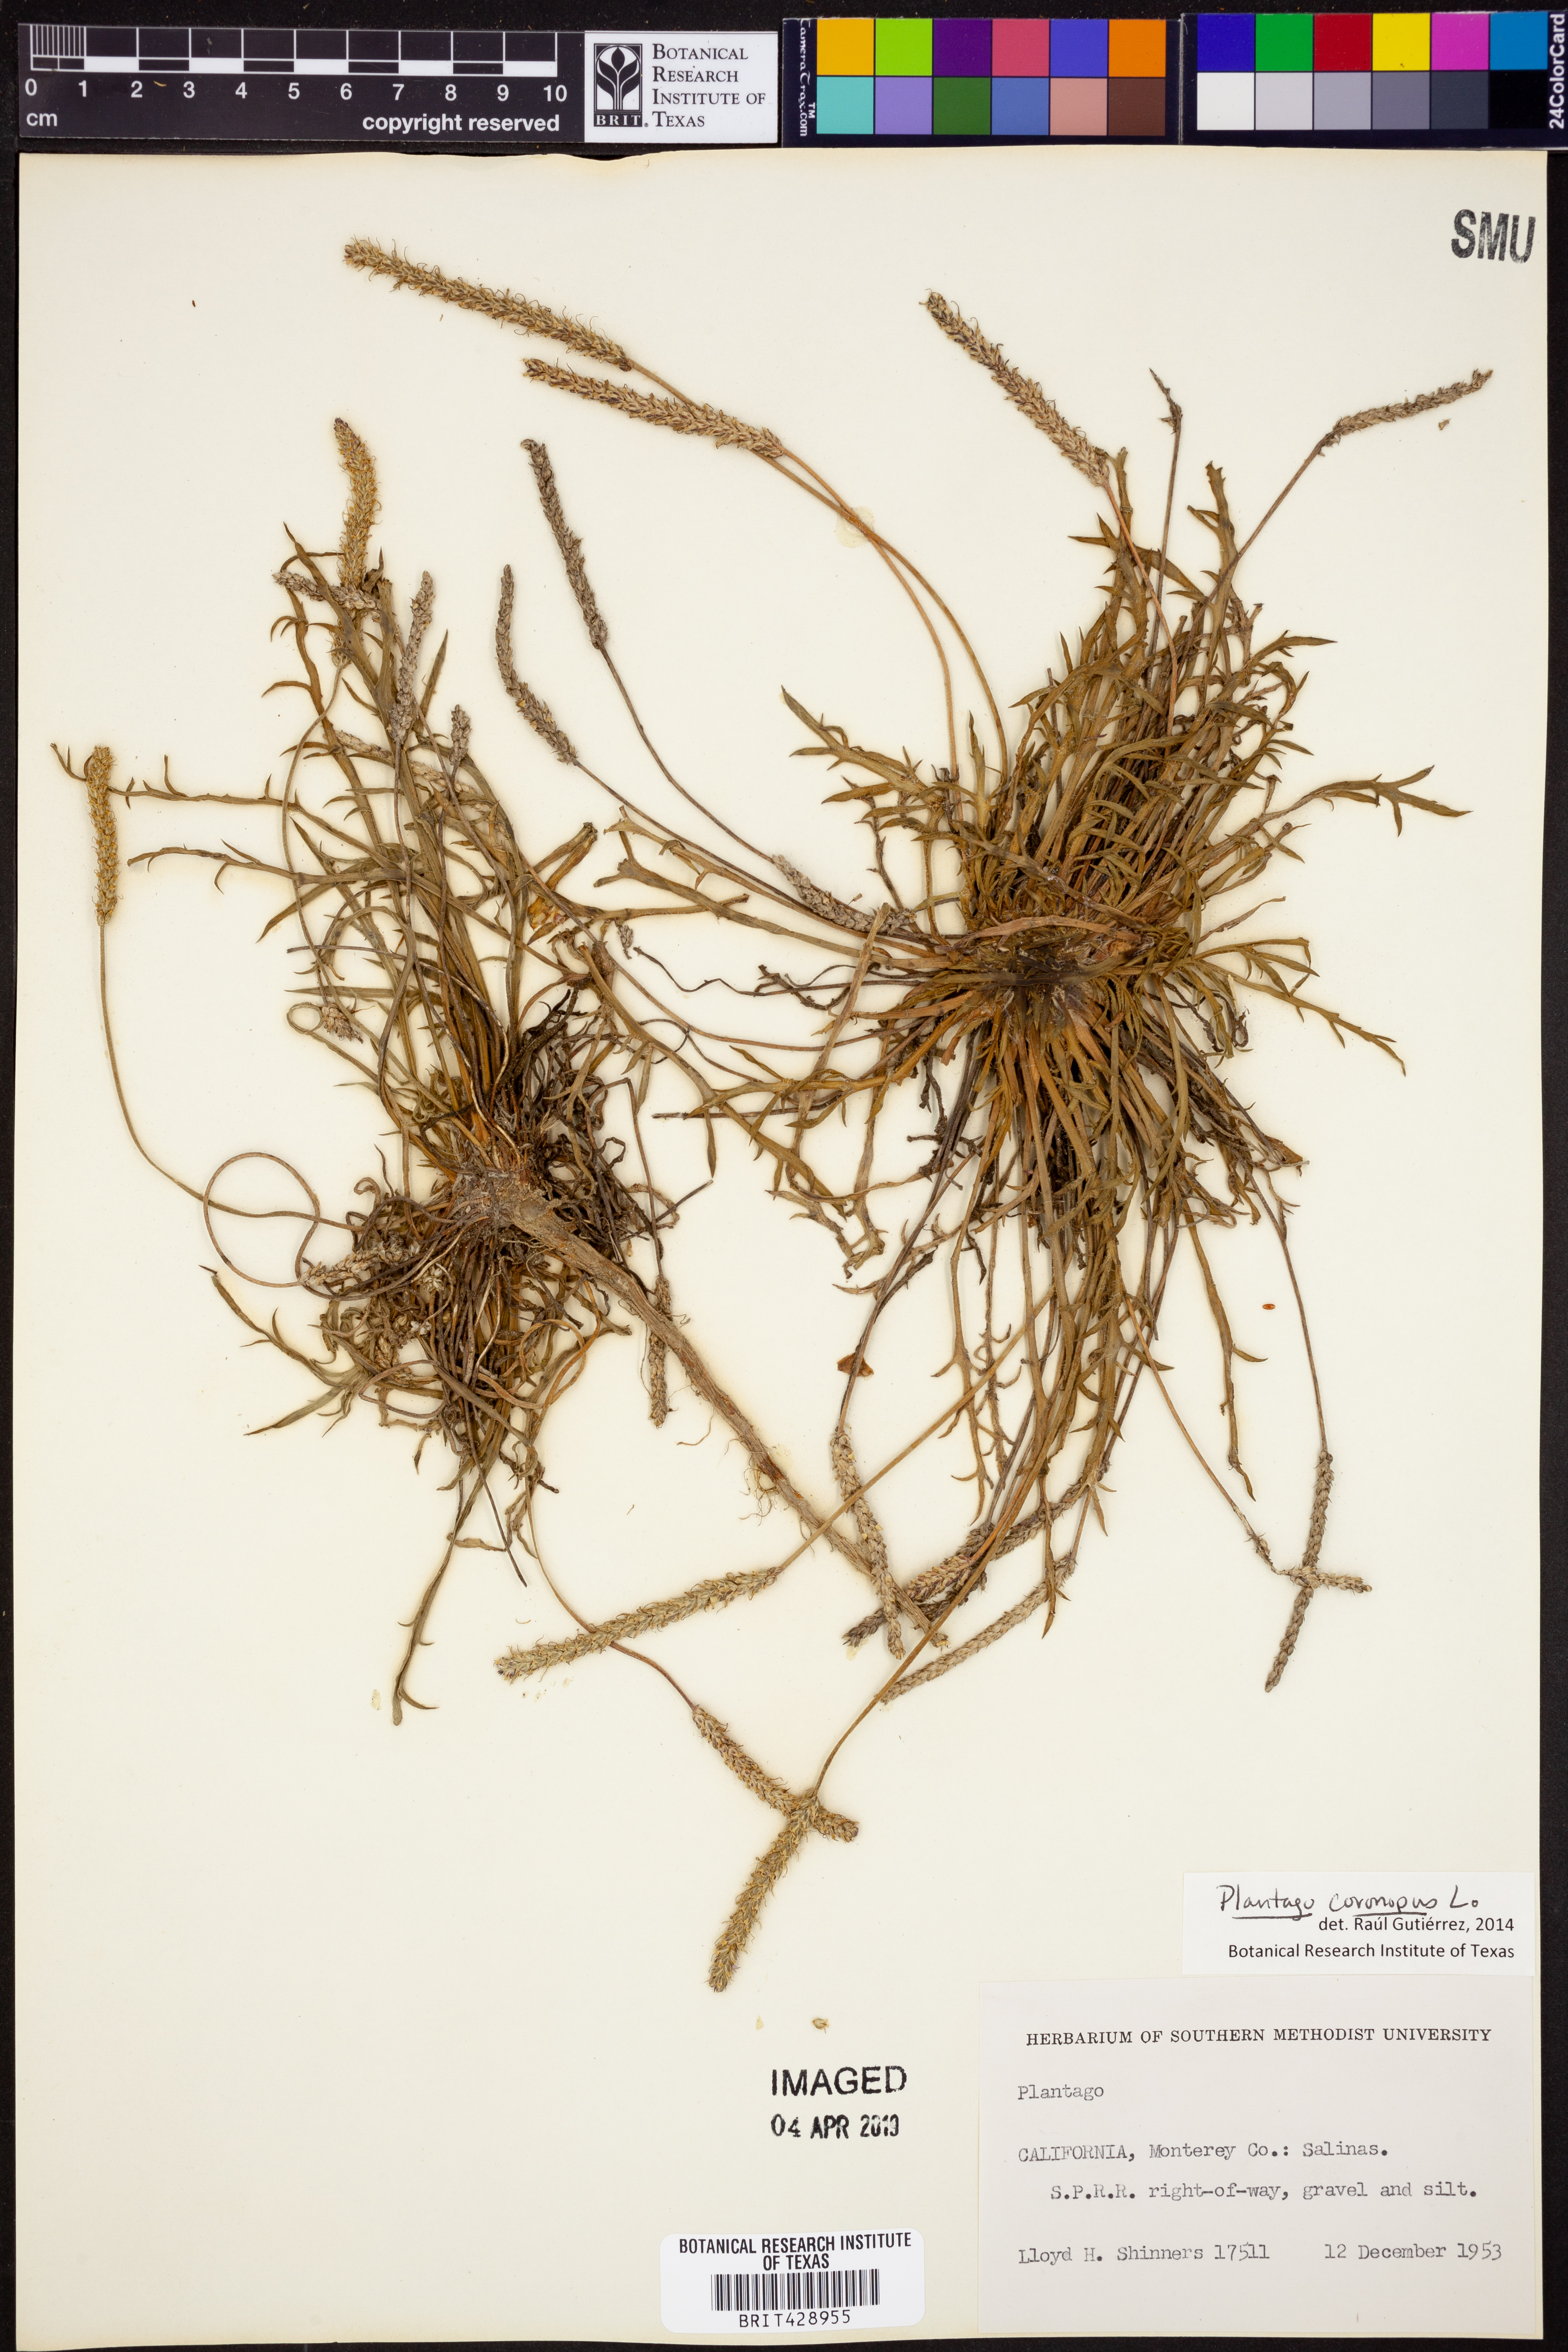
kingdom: Plantae
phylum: Tracheophyta
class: Magnoliopsida
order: Lamiales
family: Plantaginaceae
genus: Plantago
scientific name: Plantago coronopus
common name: Buck's-horn plantain
